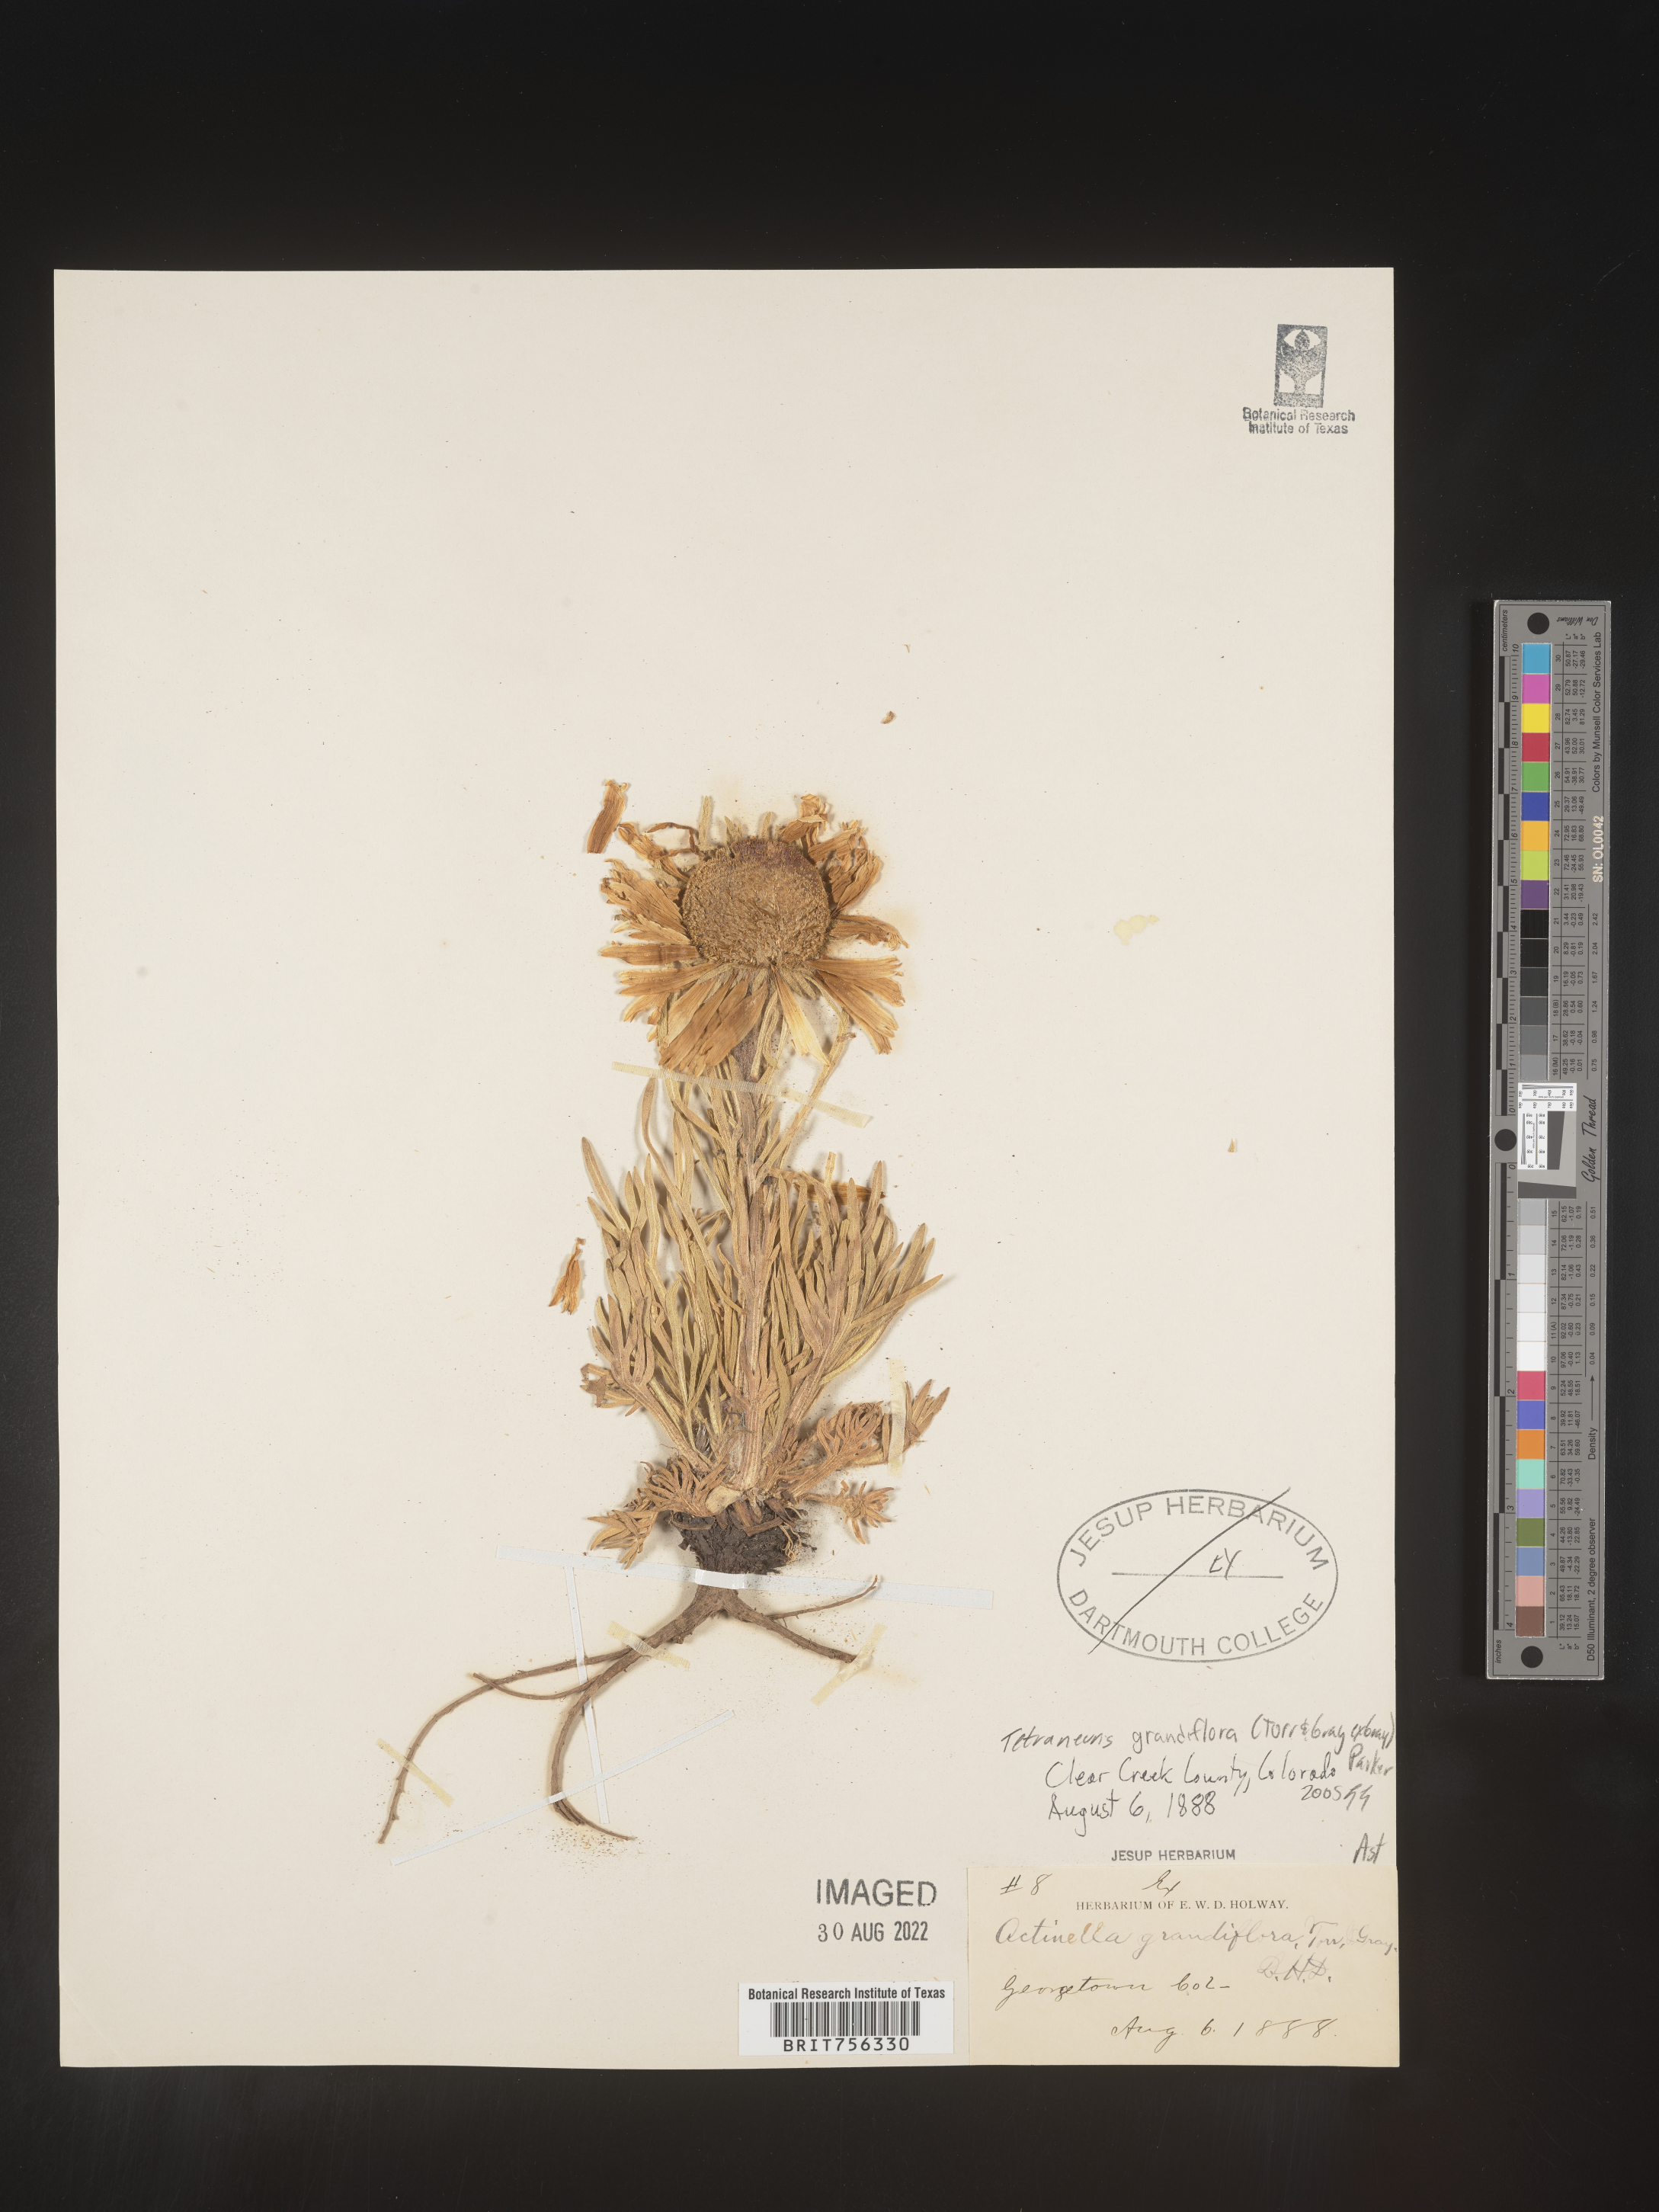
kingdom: Plantae
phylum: Tracheophyta
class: Magnoliopsida
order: Asterales
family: Asteraceae
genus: Hymenoxys
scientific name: Hymenoxys grandiflora
